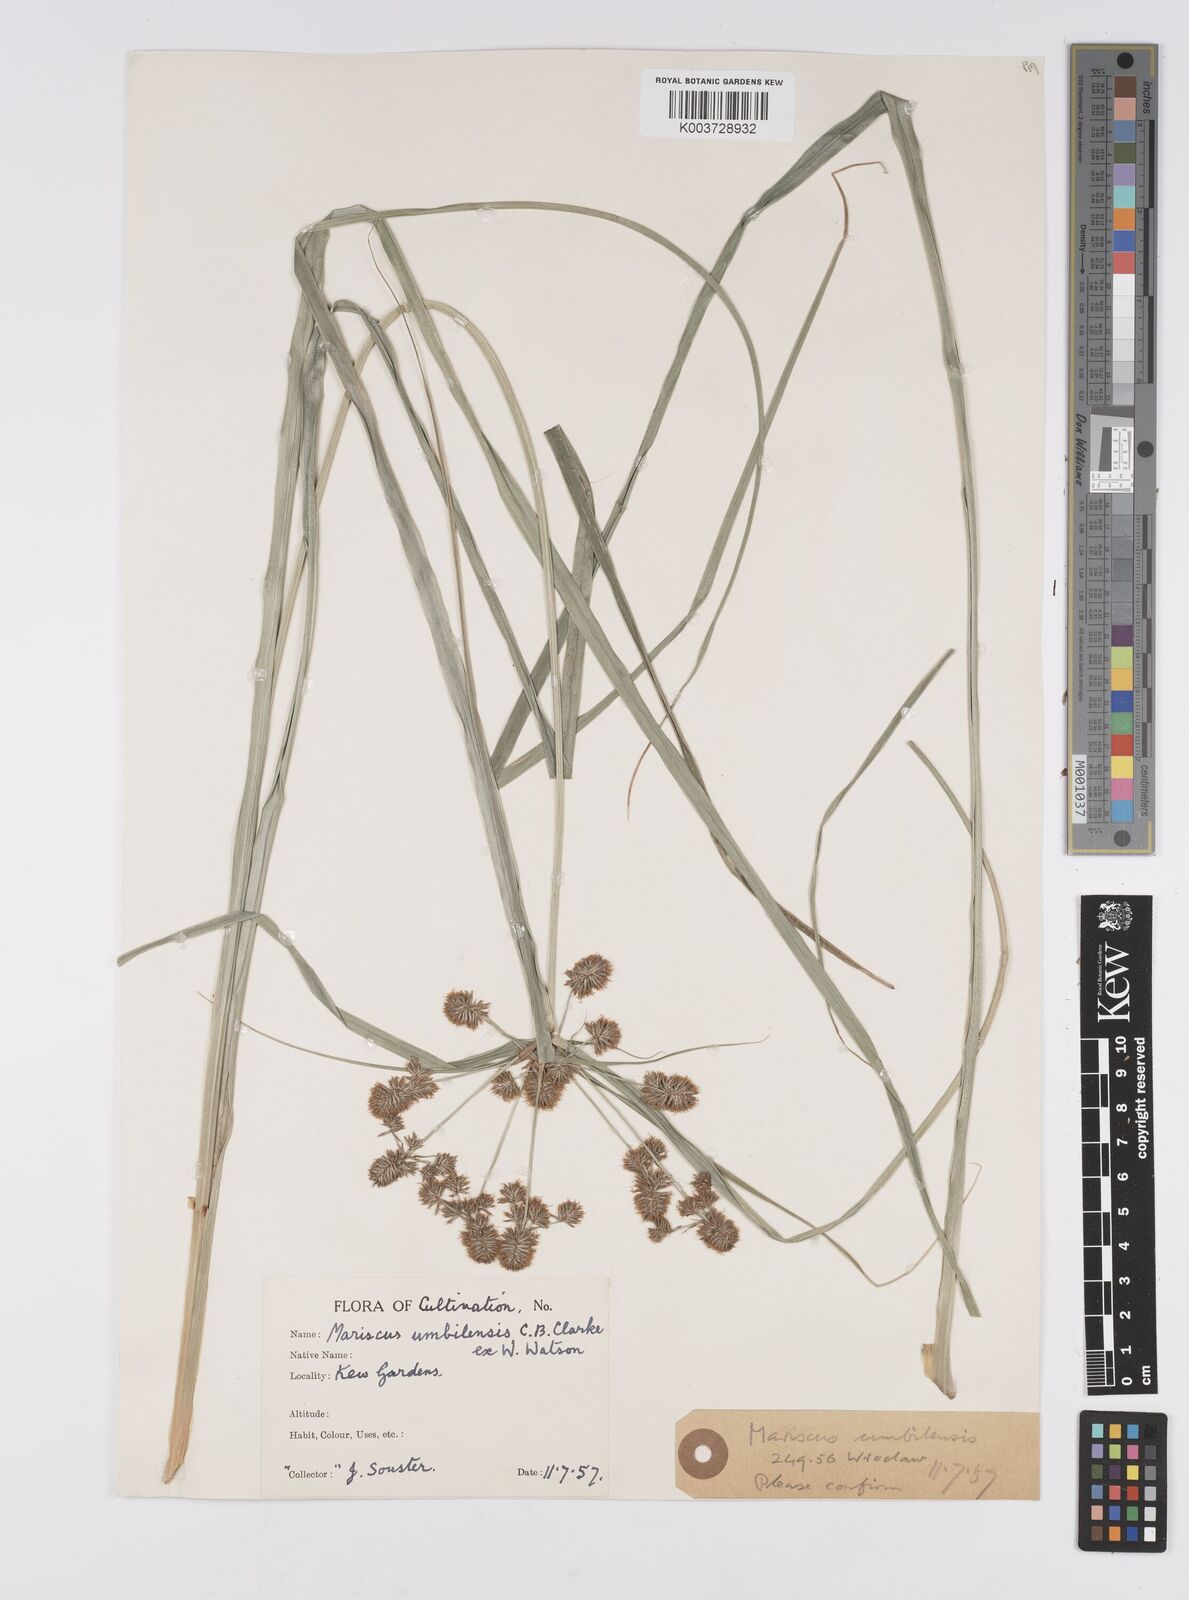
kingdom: Plantae
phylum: Tracheophyta
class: Liliopsida
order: Poales
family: Cyperaceae
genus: Cyperus
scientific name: Cyperus owanii
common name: Owan's flatsedge
